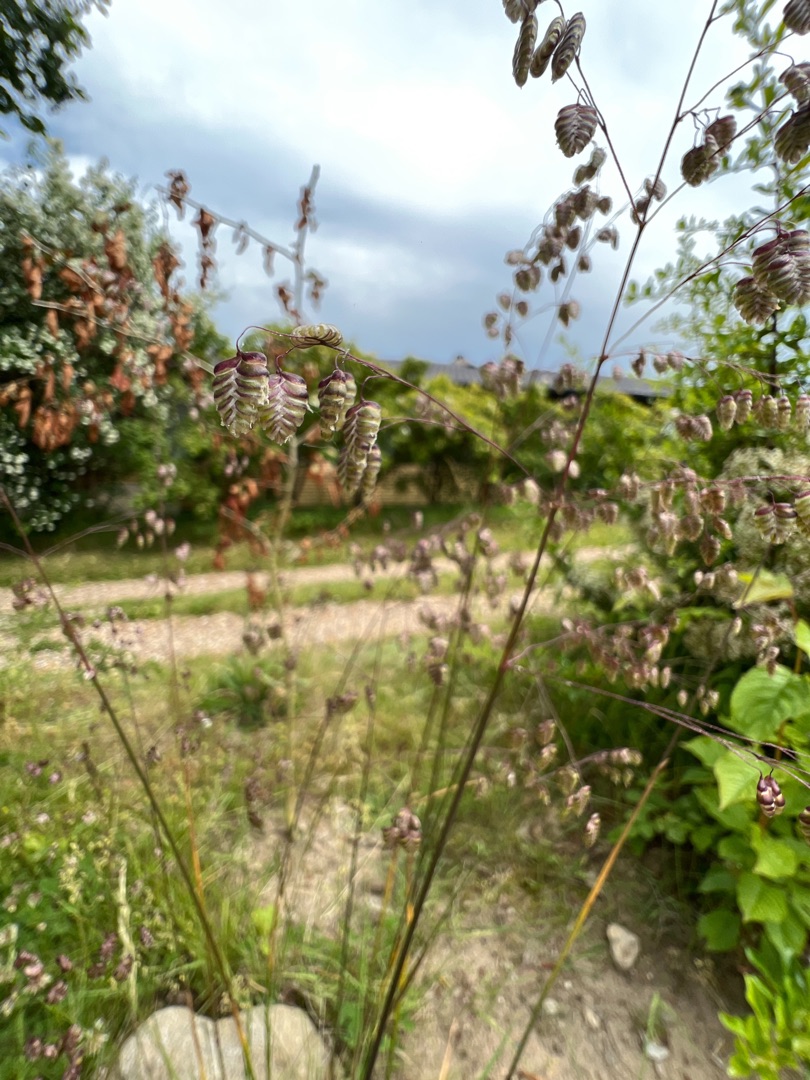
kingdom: Plantae
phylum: Tracheophyta
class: Liliopsida
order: Poales
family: Poaceae
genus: Briza
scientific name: Briza media
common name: Hjertegræs
